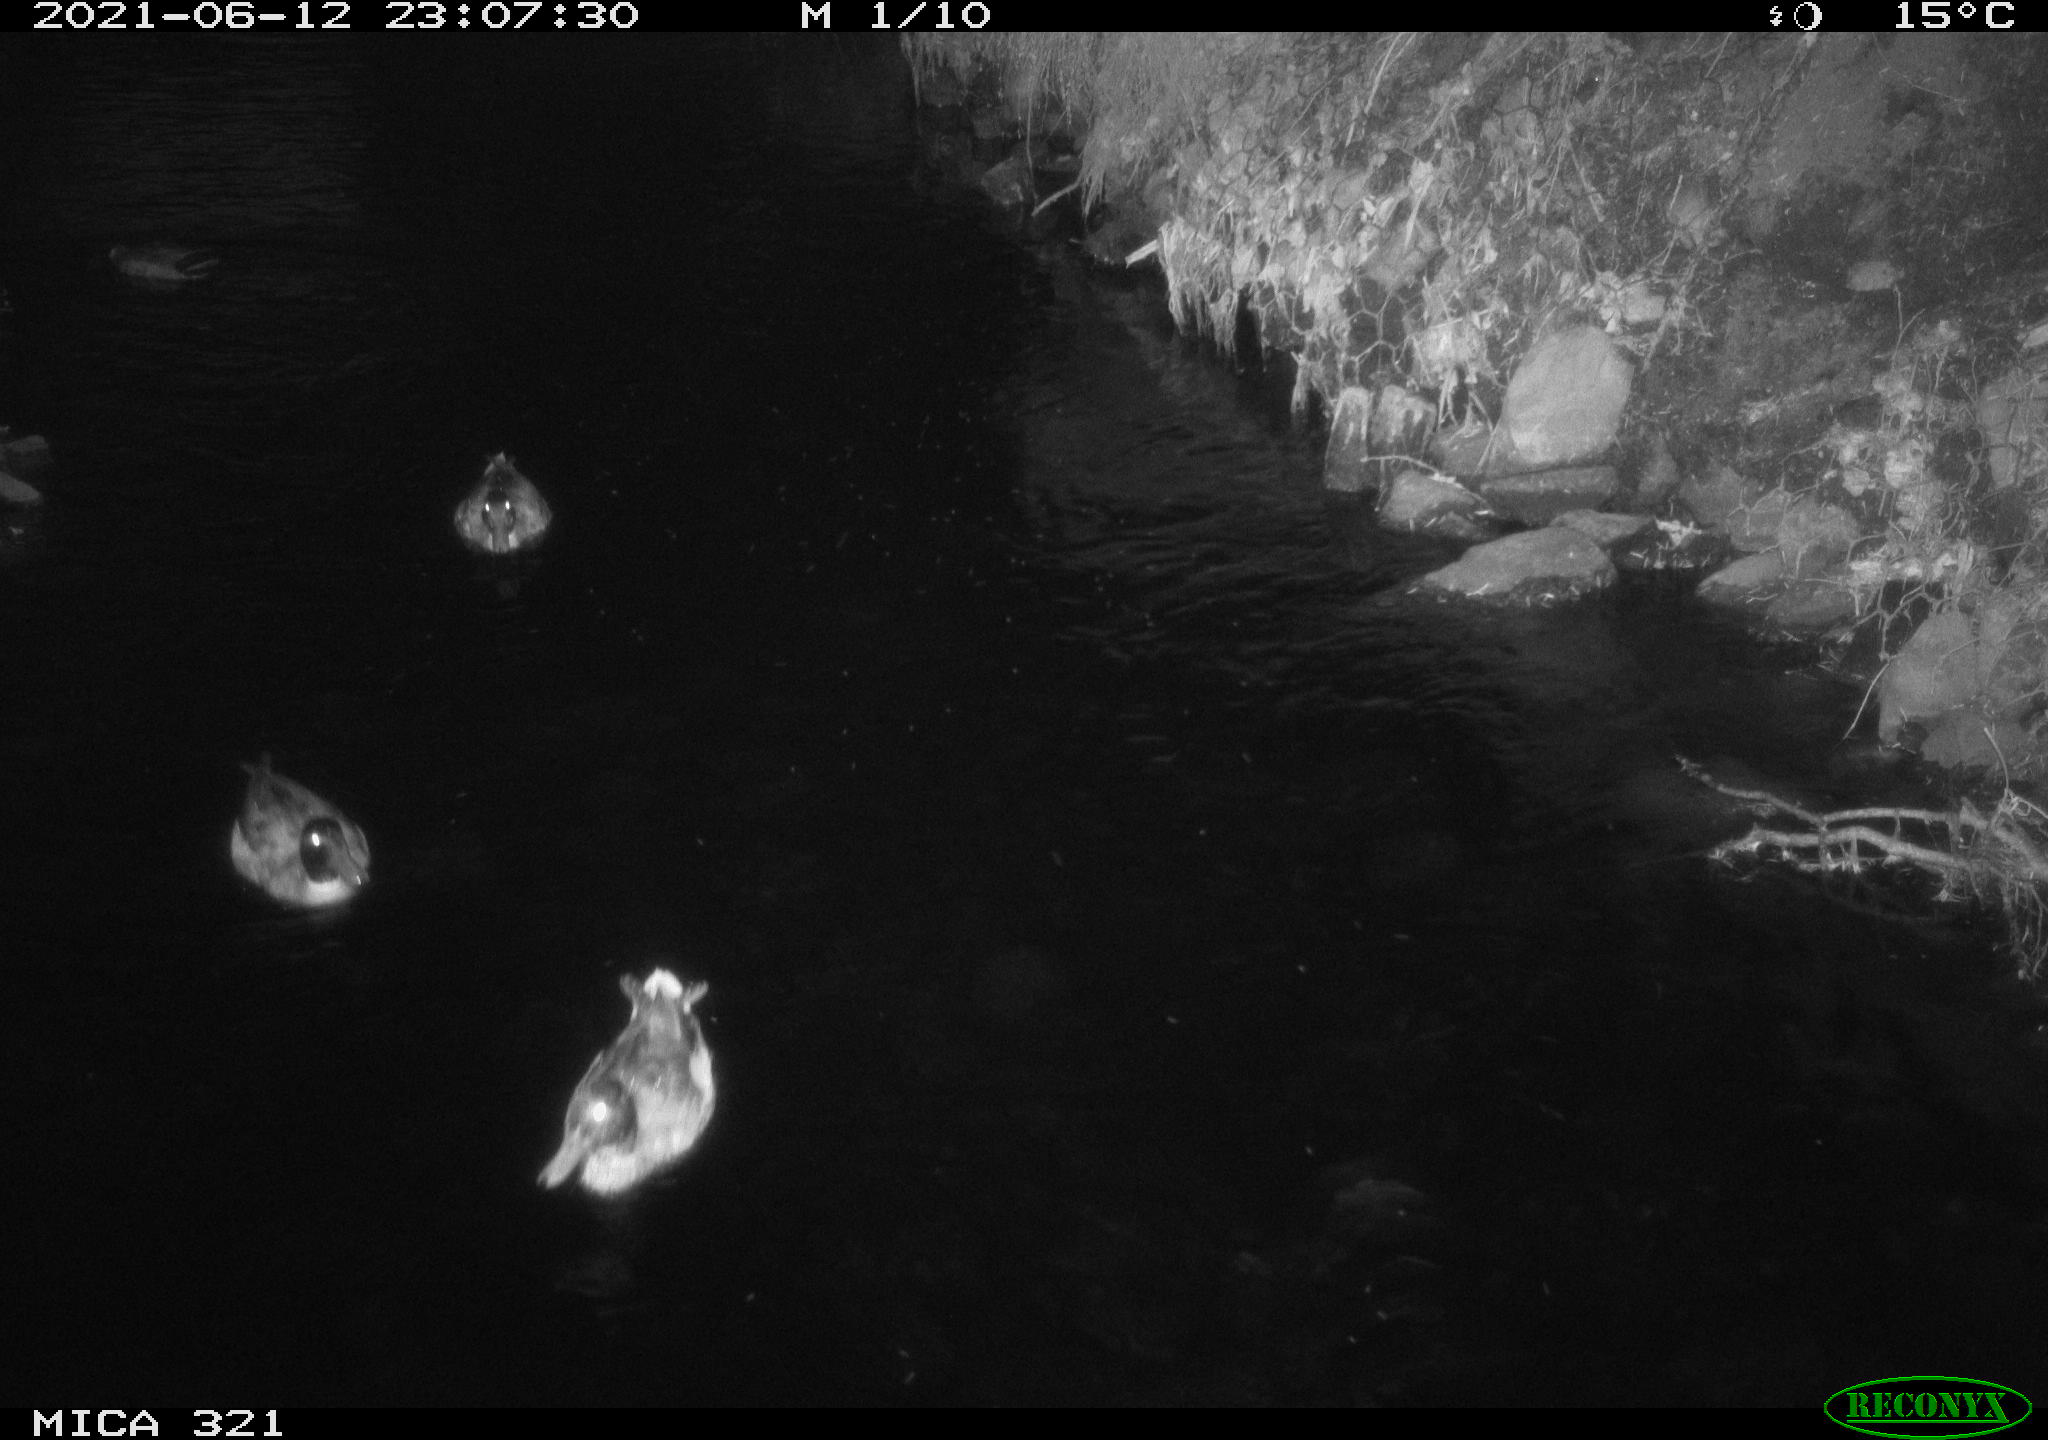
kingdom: Animalia
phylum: Chordata
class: Aves
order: Anseriformes
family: Anatidae
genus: Anas
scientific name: Anas platyrhynchos
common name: Mallard
